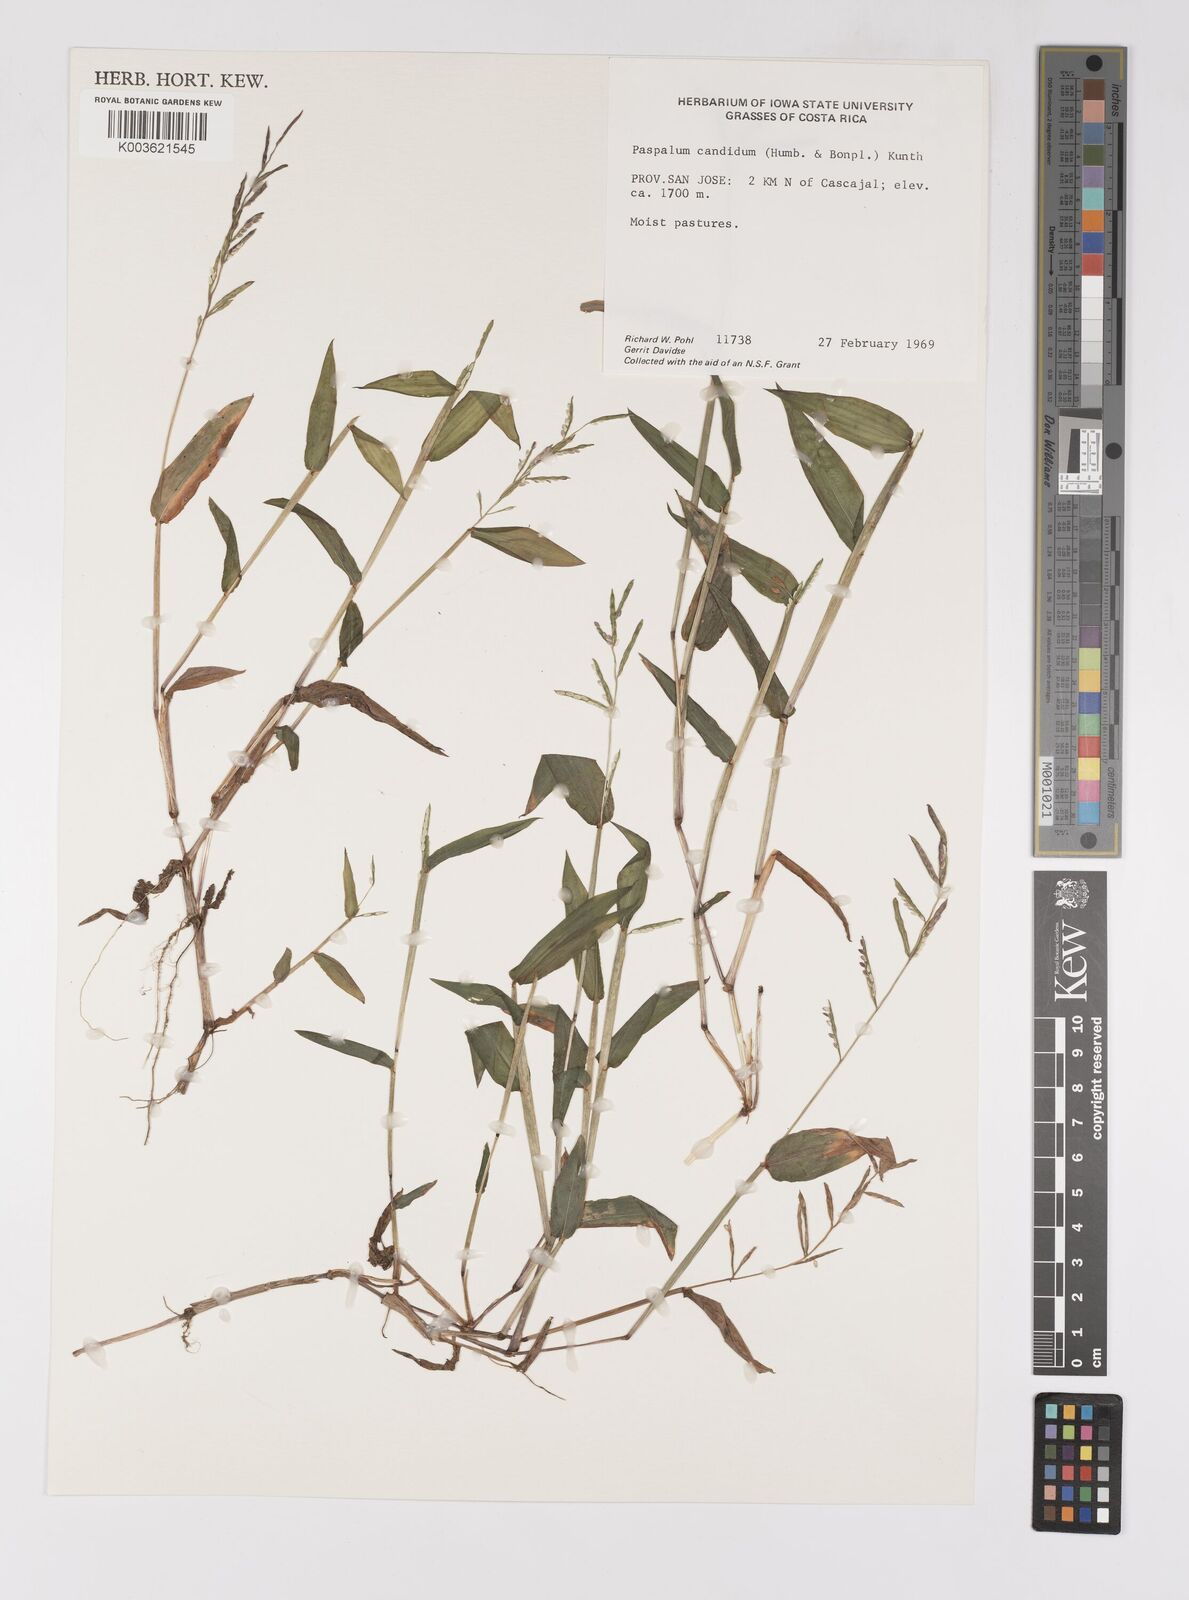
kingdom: Plantae
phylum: Tracheophyta
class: Liliopsida
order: Poales
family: Poaceae
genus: Paspalum
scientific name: Paspalum candidum
